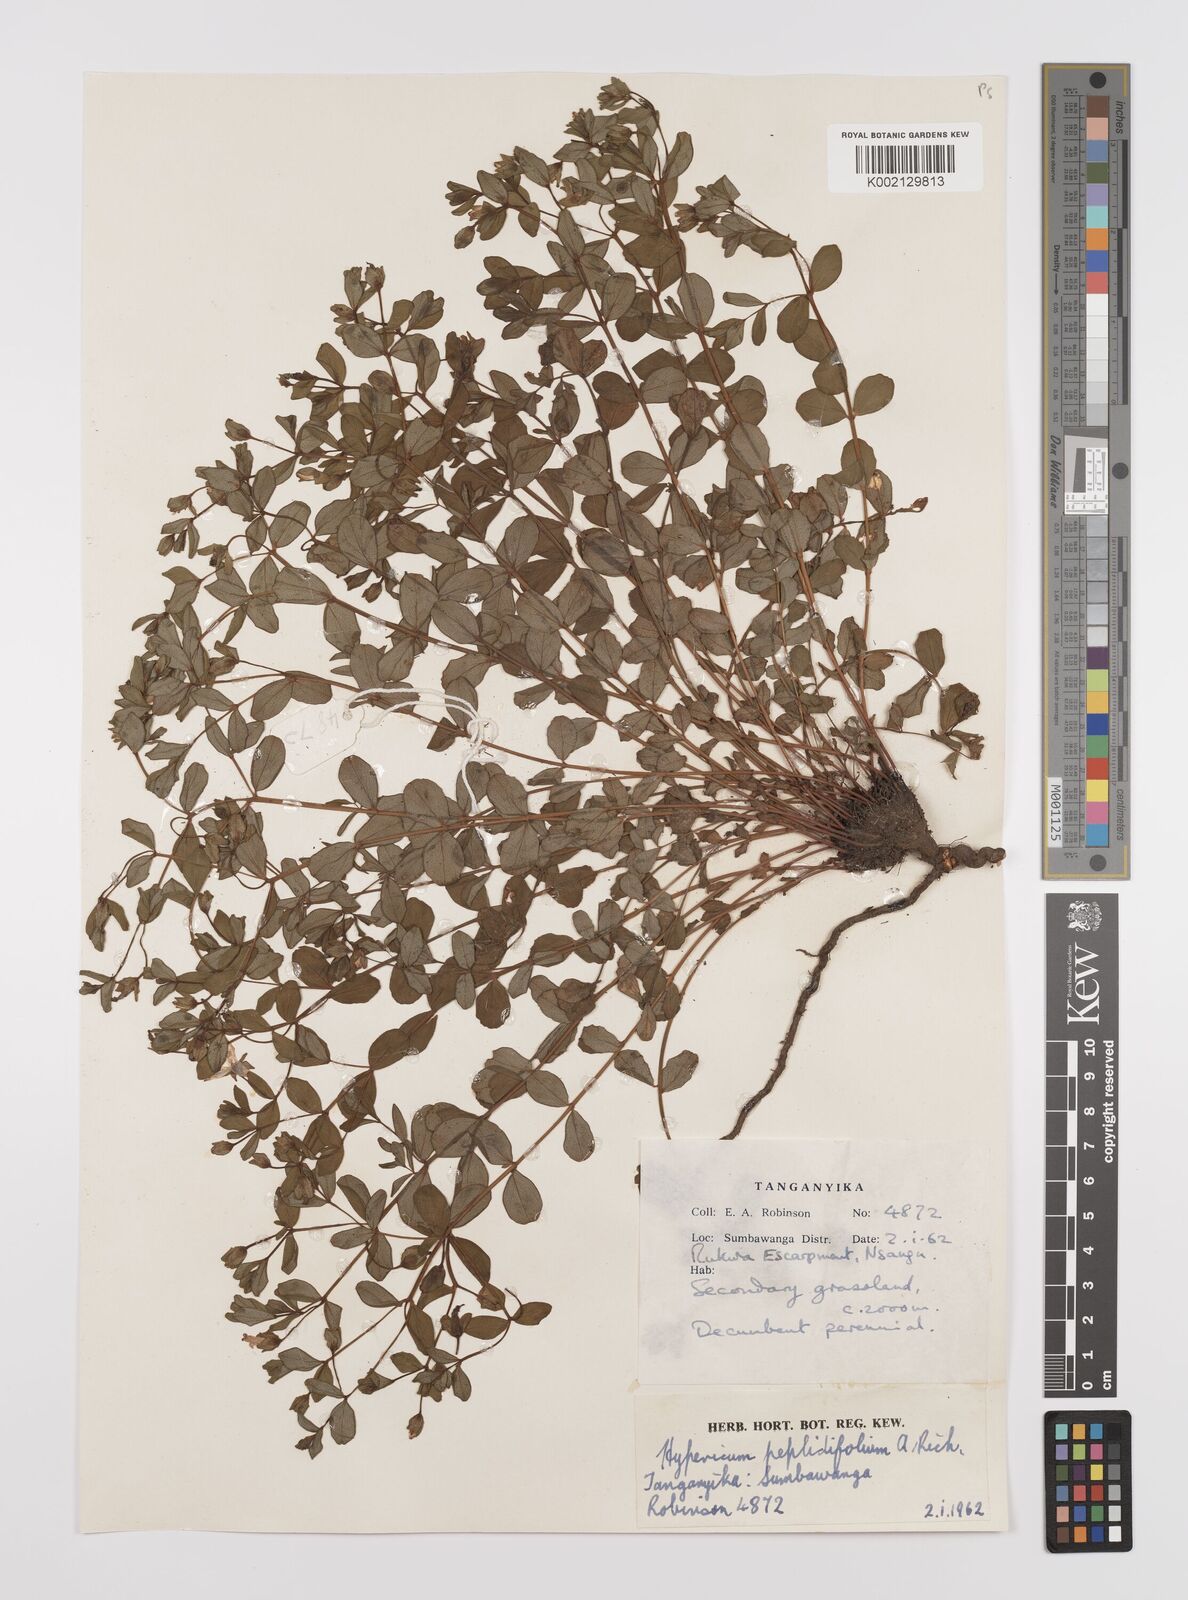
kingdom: Plantae
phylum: Tracheophyta
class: Magnoliopsida
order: Malpighiales
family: Hypericaceae
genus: Hypericum
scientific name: Hypericum peplidifolium
